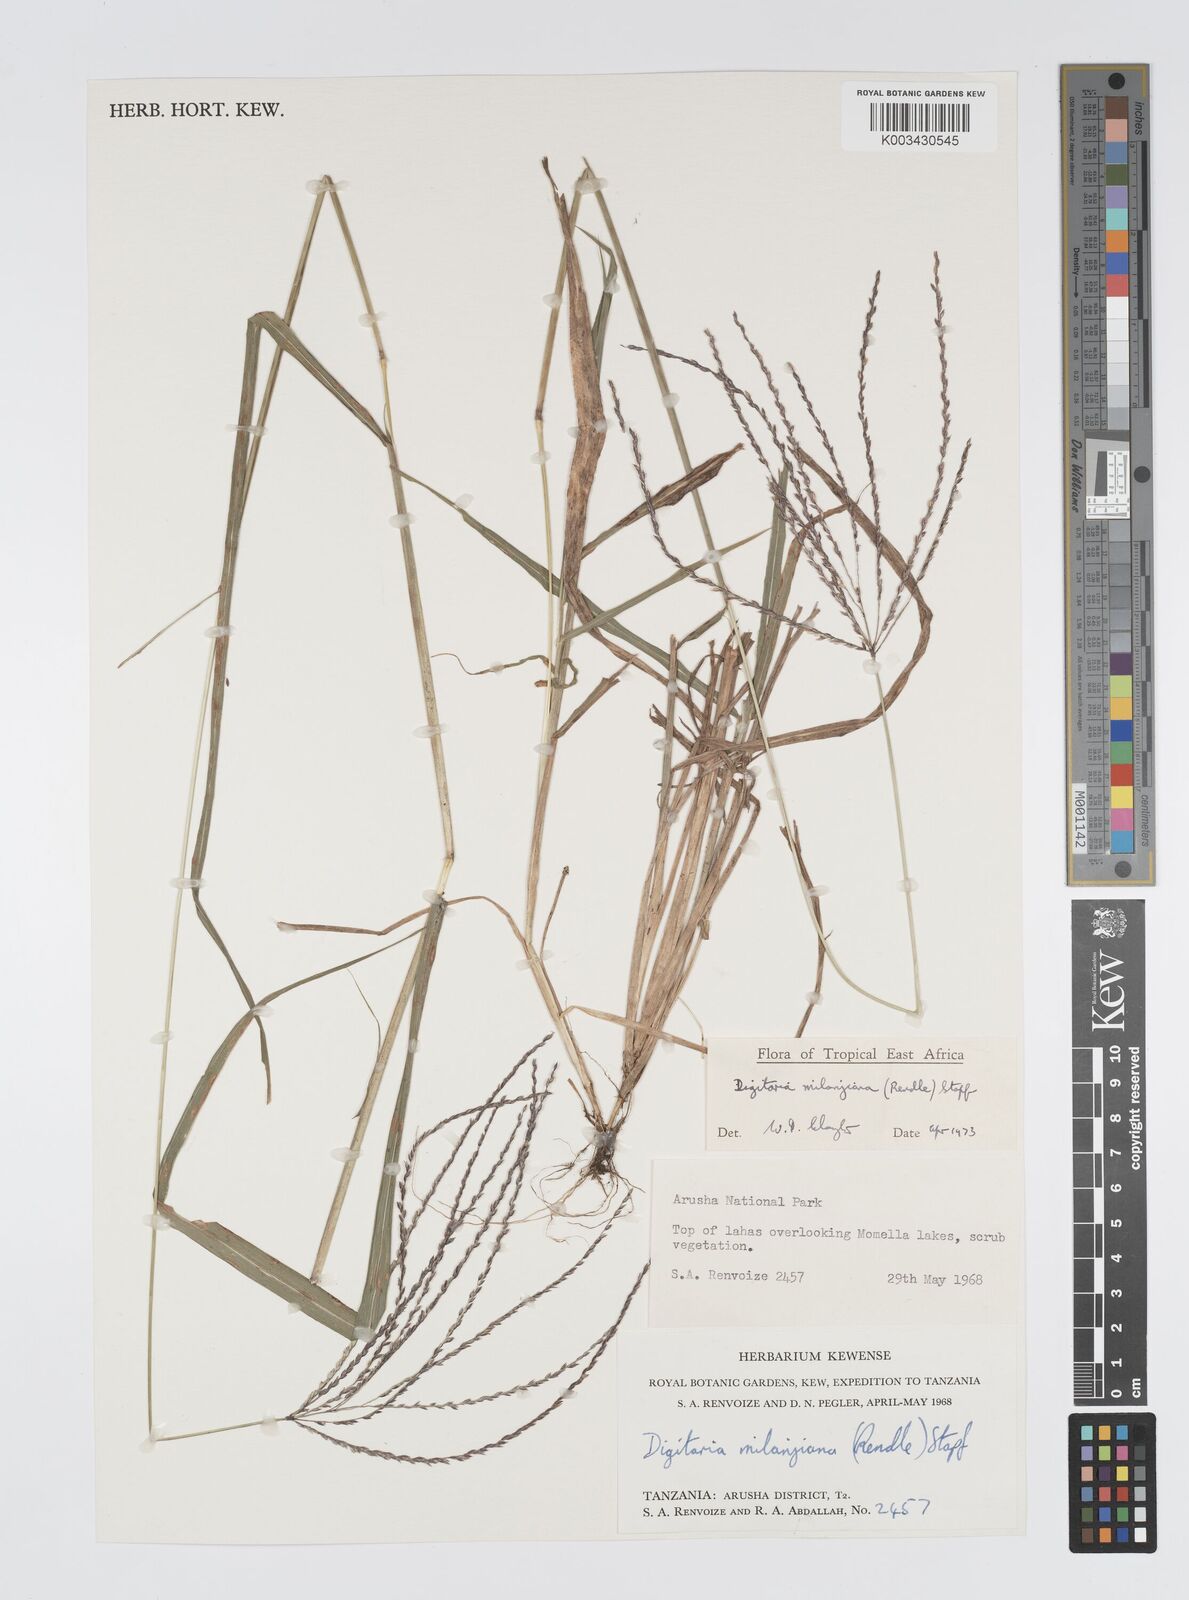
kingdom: Plantae
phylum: Tracheophyta
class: Liliopsida
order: Poales
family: Poaceae
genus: Digitaria
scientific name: Digitaria milanjiana
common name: Madagascar crabgrass
